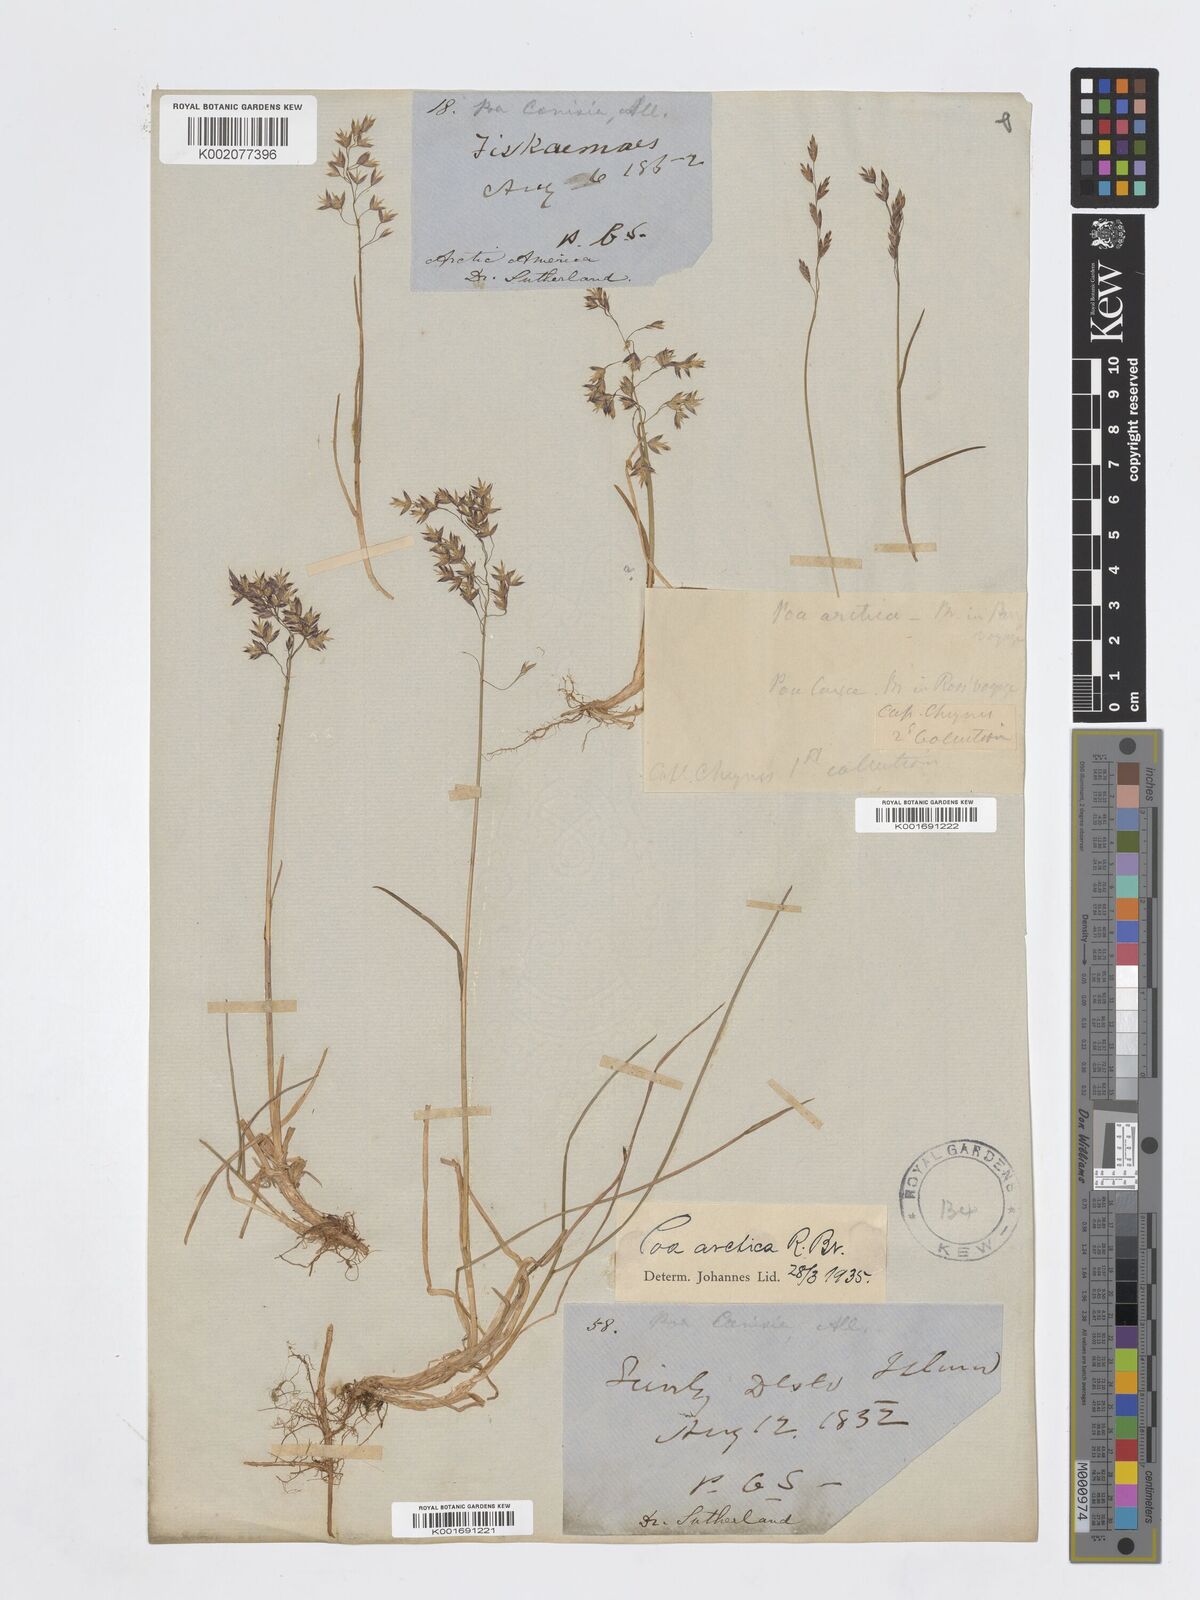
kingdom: Plantae
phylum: Tracheophyta
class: Liliopsida
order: Poales
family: Poaceae
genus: Poa
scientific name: Poa cenisia
